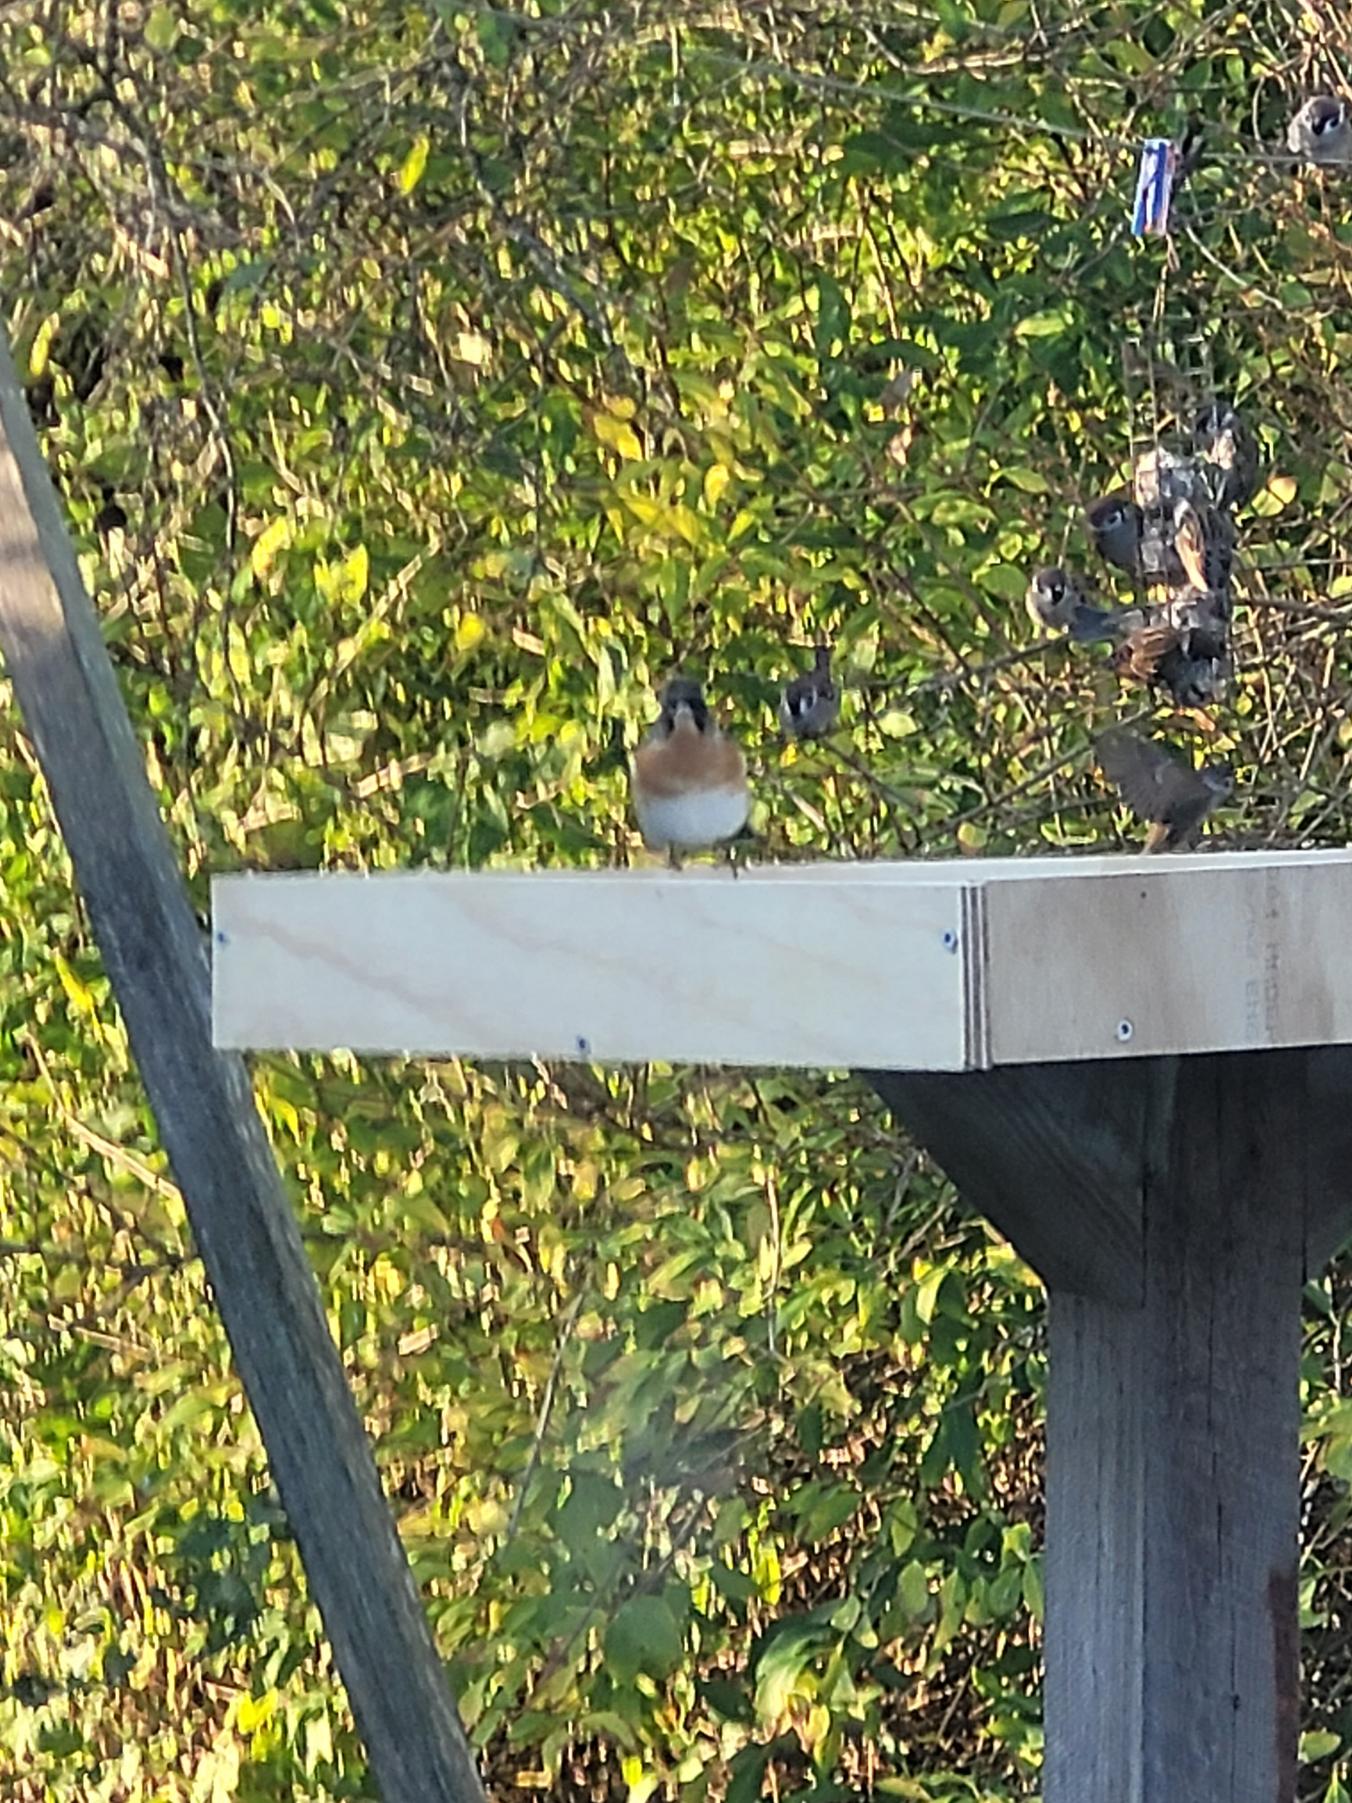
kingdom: Animalia
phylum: Chordata
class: Aves
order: Passeriformes
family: Fringillidae
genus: Fringilla
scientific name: Fringilla montifringilla
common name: Kvækerfinke
